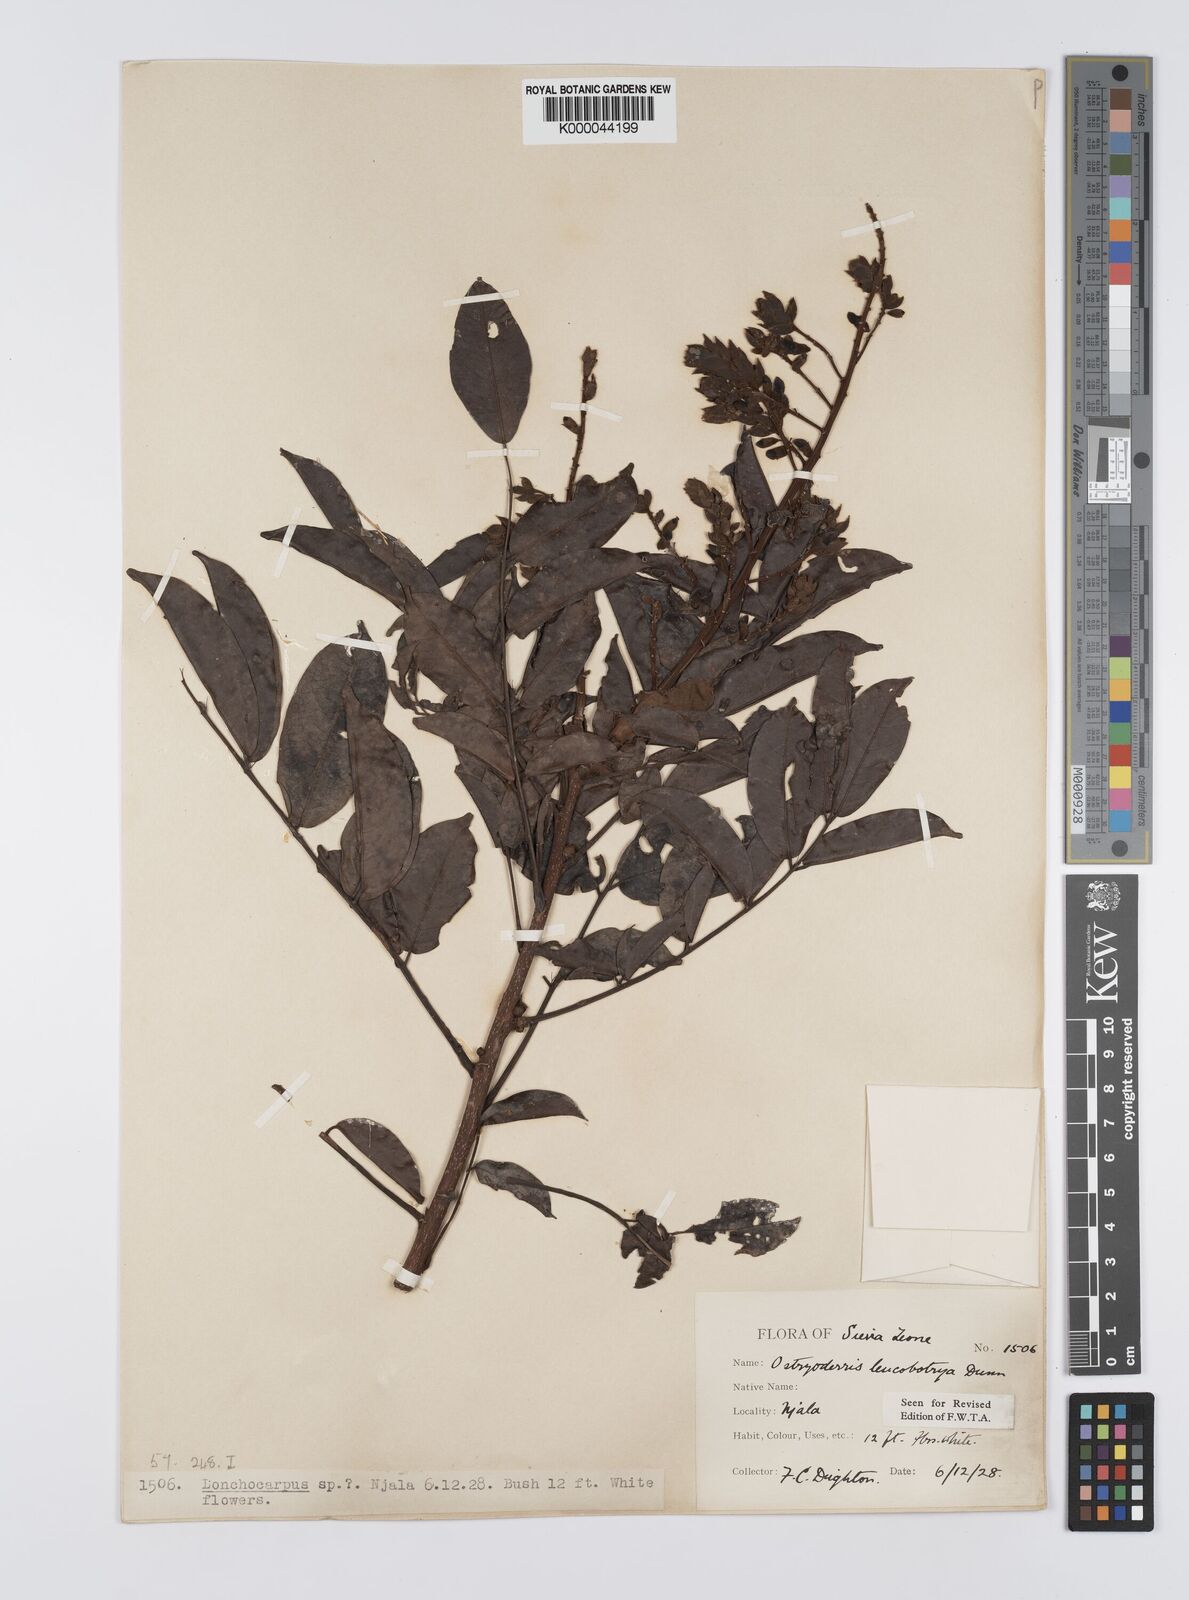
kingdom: Plantae
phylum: Tracheophyta
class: Magnoliopsida
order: Fabales
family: Fabaceae
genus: Aganope
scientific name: Aganope leucobotrya
